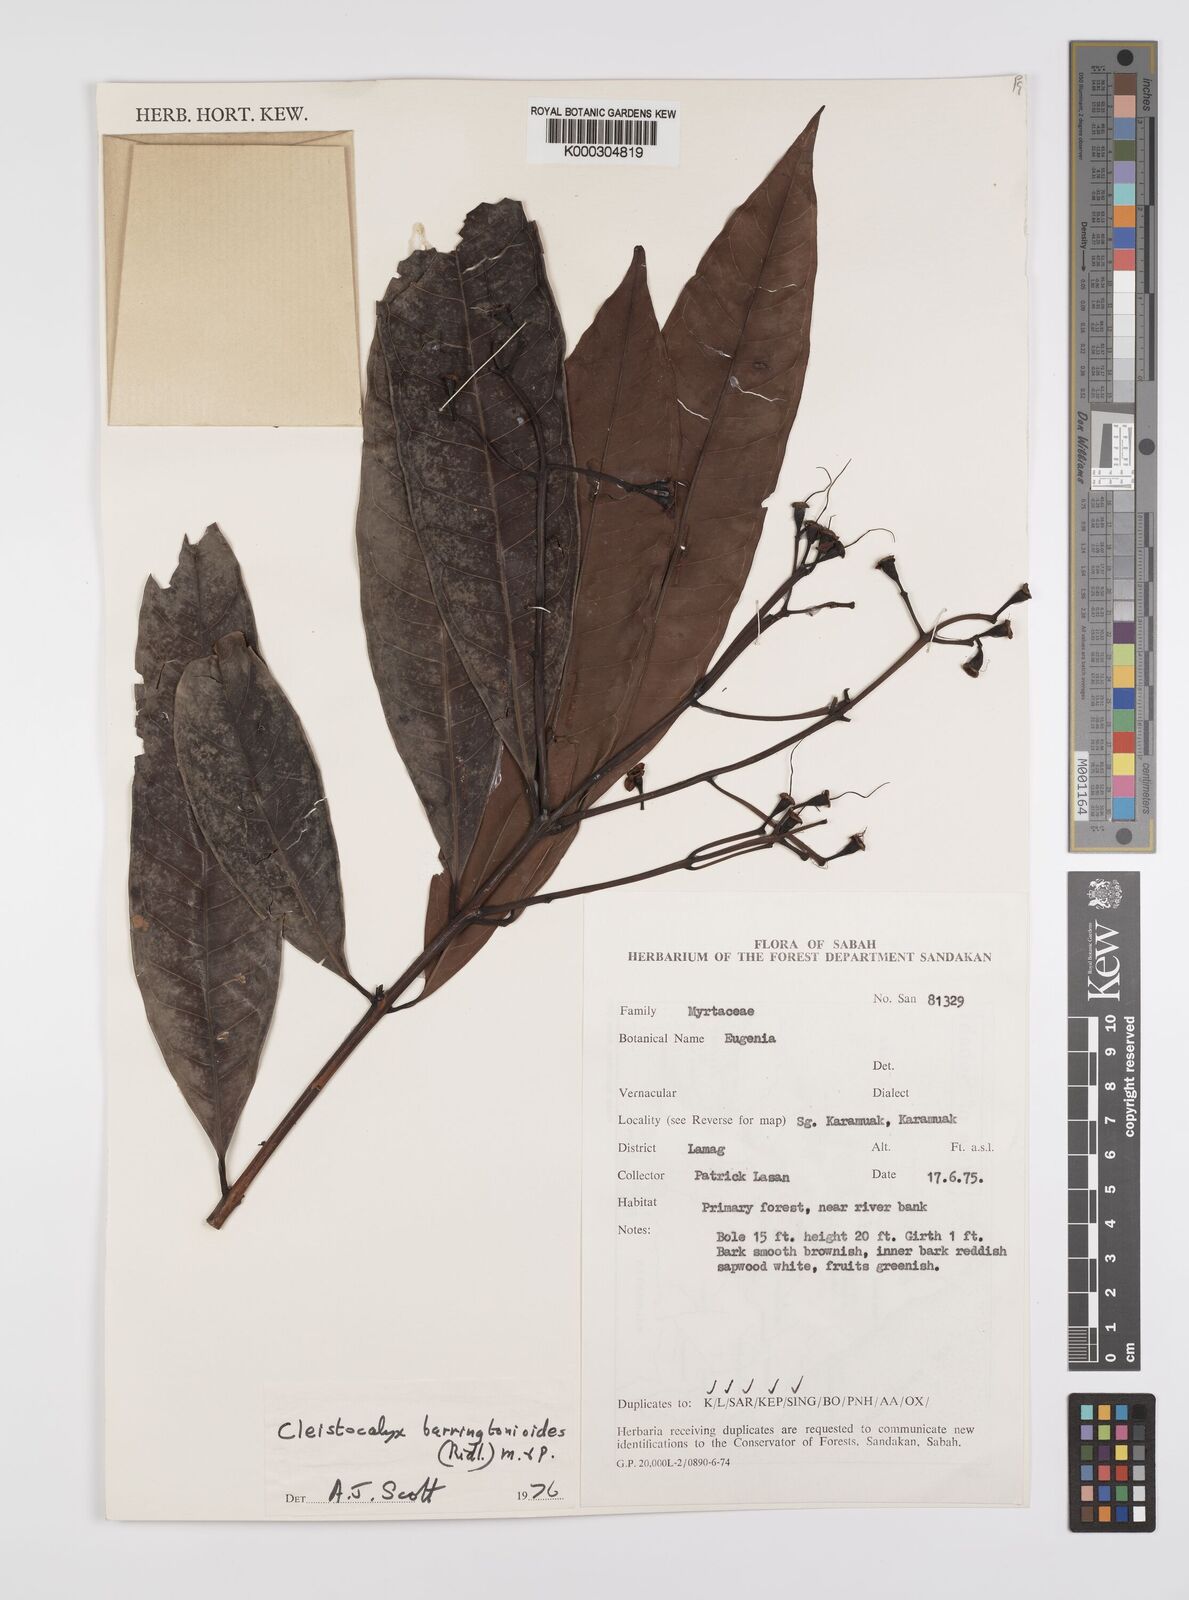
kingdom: Plantae
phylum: Tracheophyta
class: Magnoliopsida
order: Myrtales
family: Myrtaceae
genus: Syzygium
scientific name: Syzygium barringtonioides
